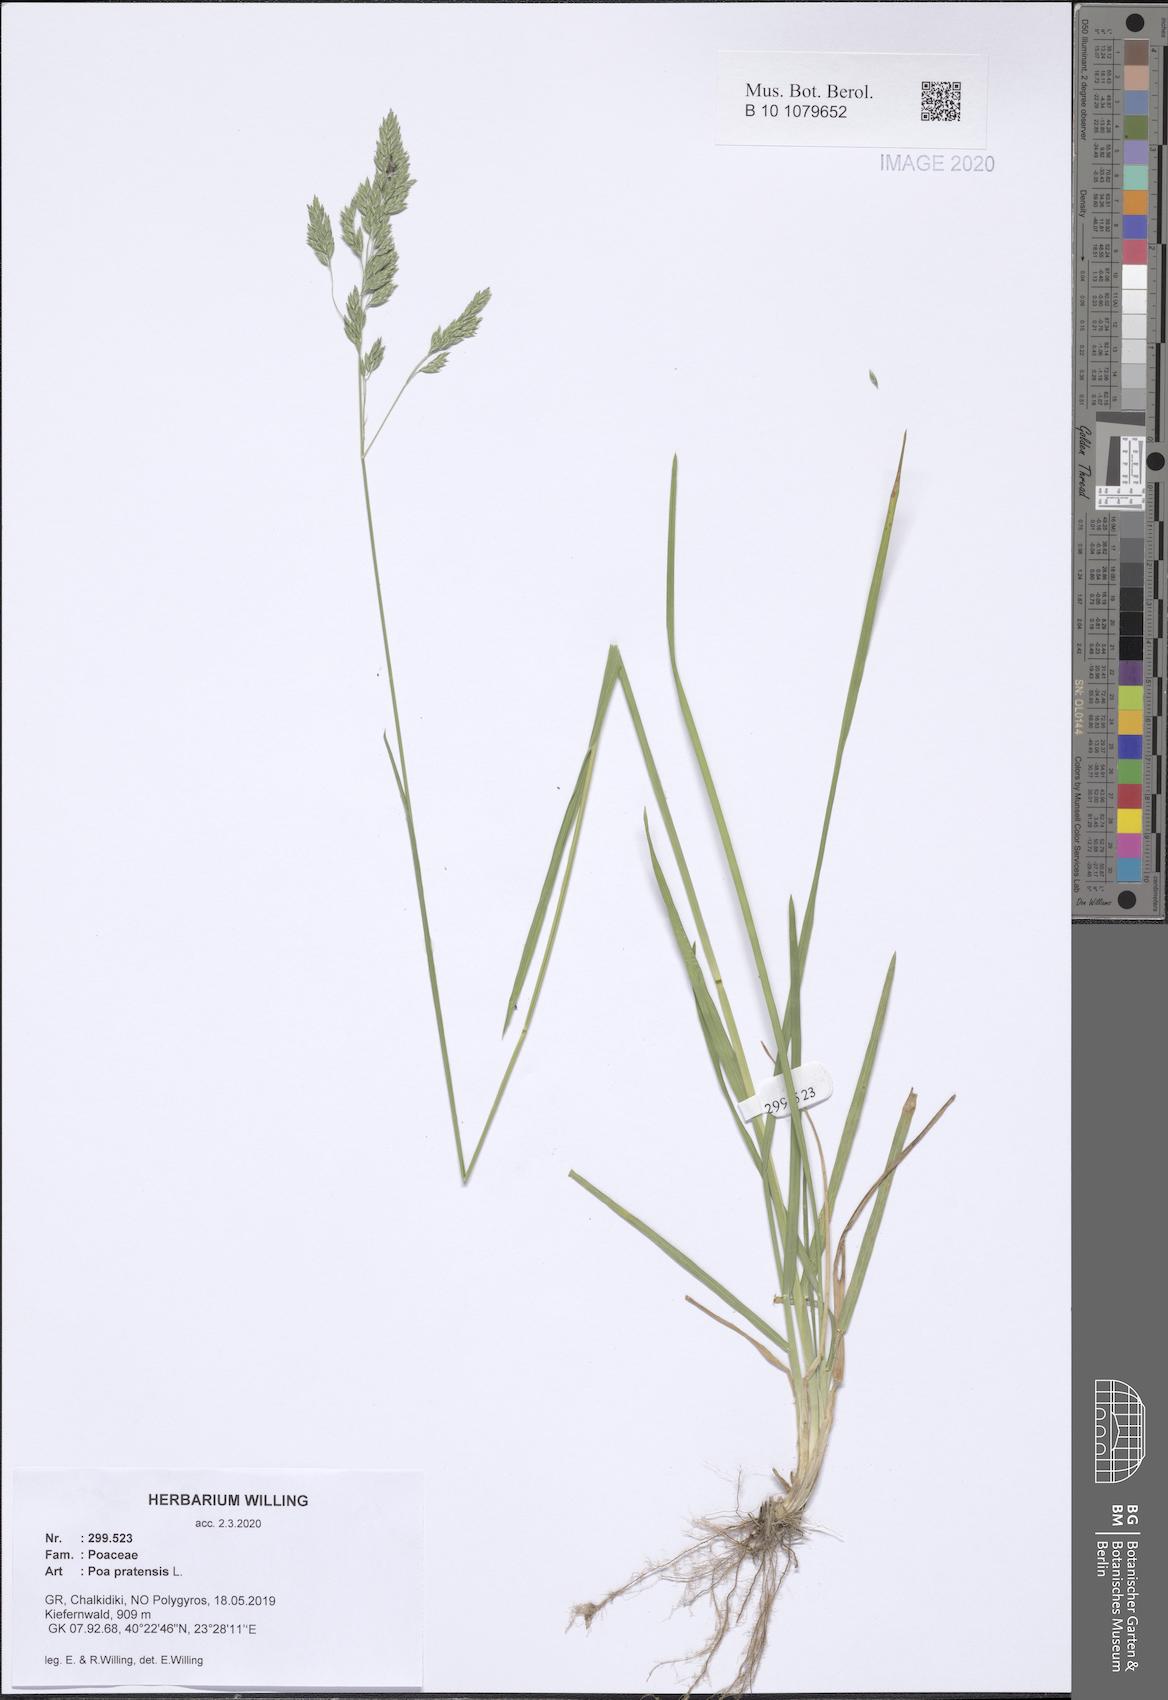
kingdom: Plantae
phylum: Tracheophyta
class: Liliopsida
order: Poales
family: Poaceae
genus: Poa
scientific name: Poa pratensis
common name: Kentucky bluegrass
